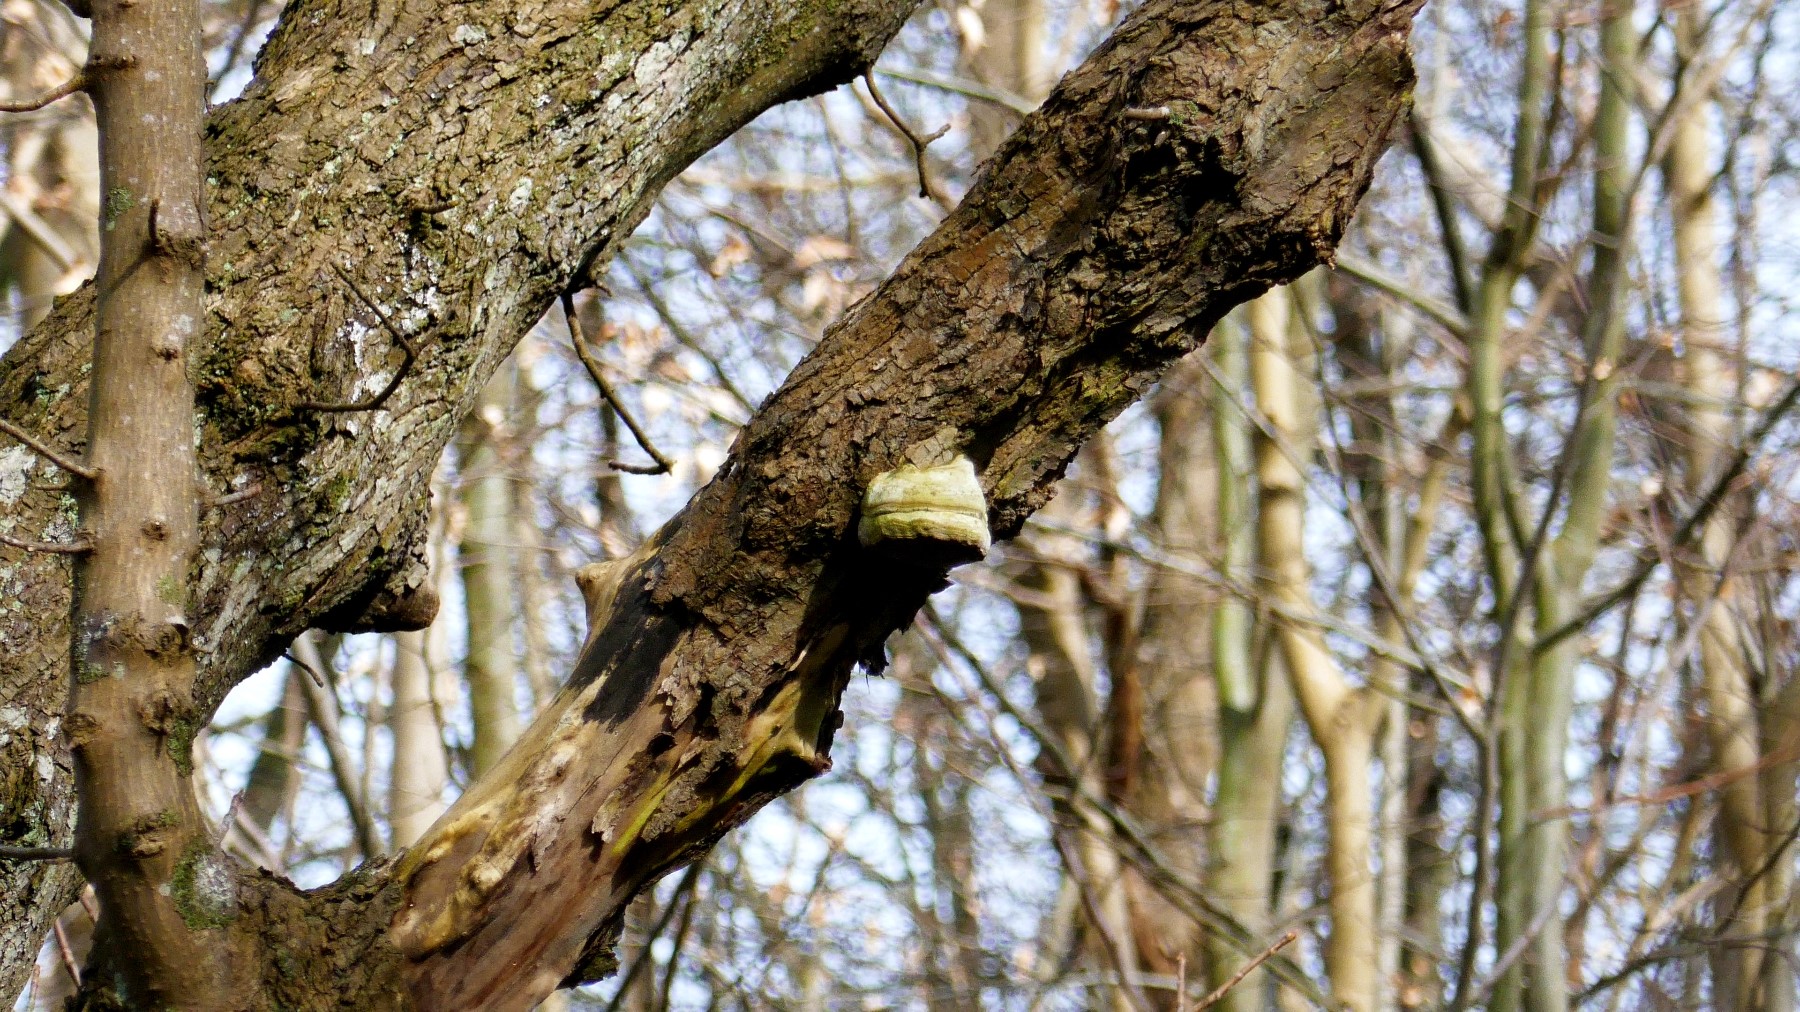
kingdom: Fungi
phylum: Basidiomycota
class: Agaricomycetes
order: Polyporales
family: Polyporaceae
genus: Fomes
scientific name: Fomes fomentarius
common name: tøndersvamp
